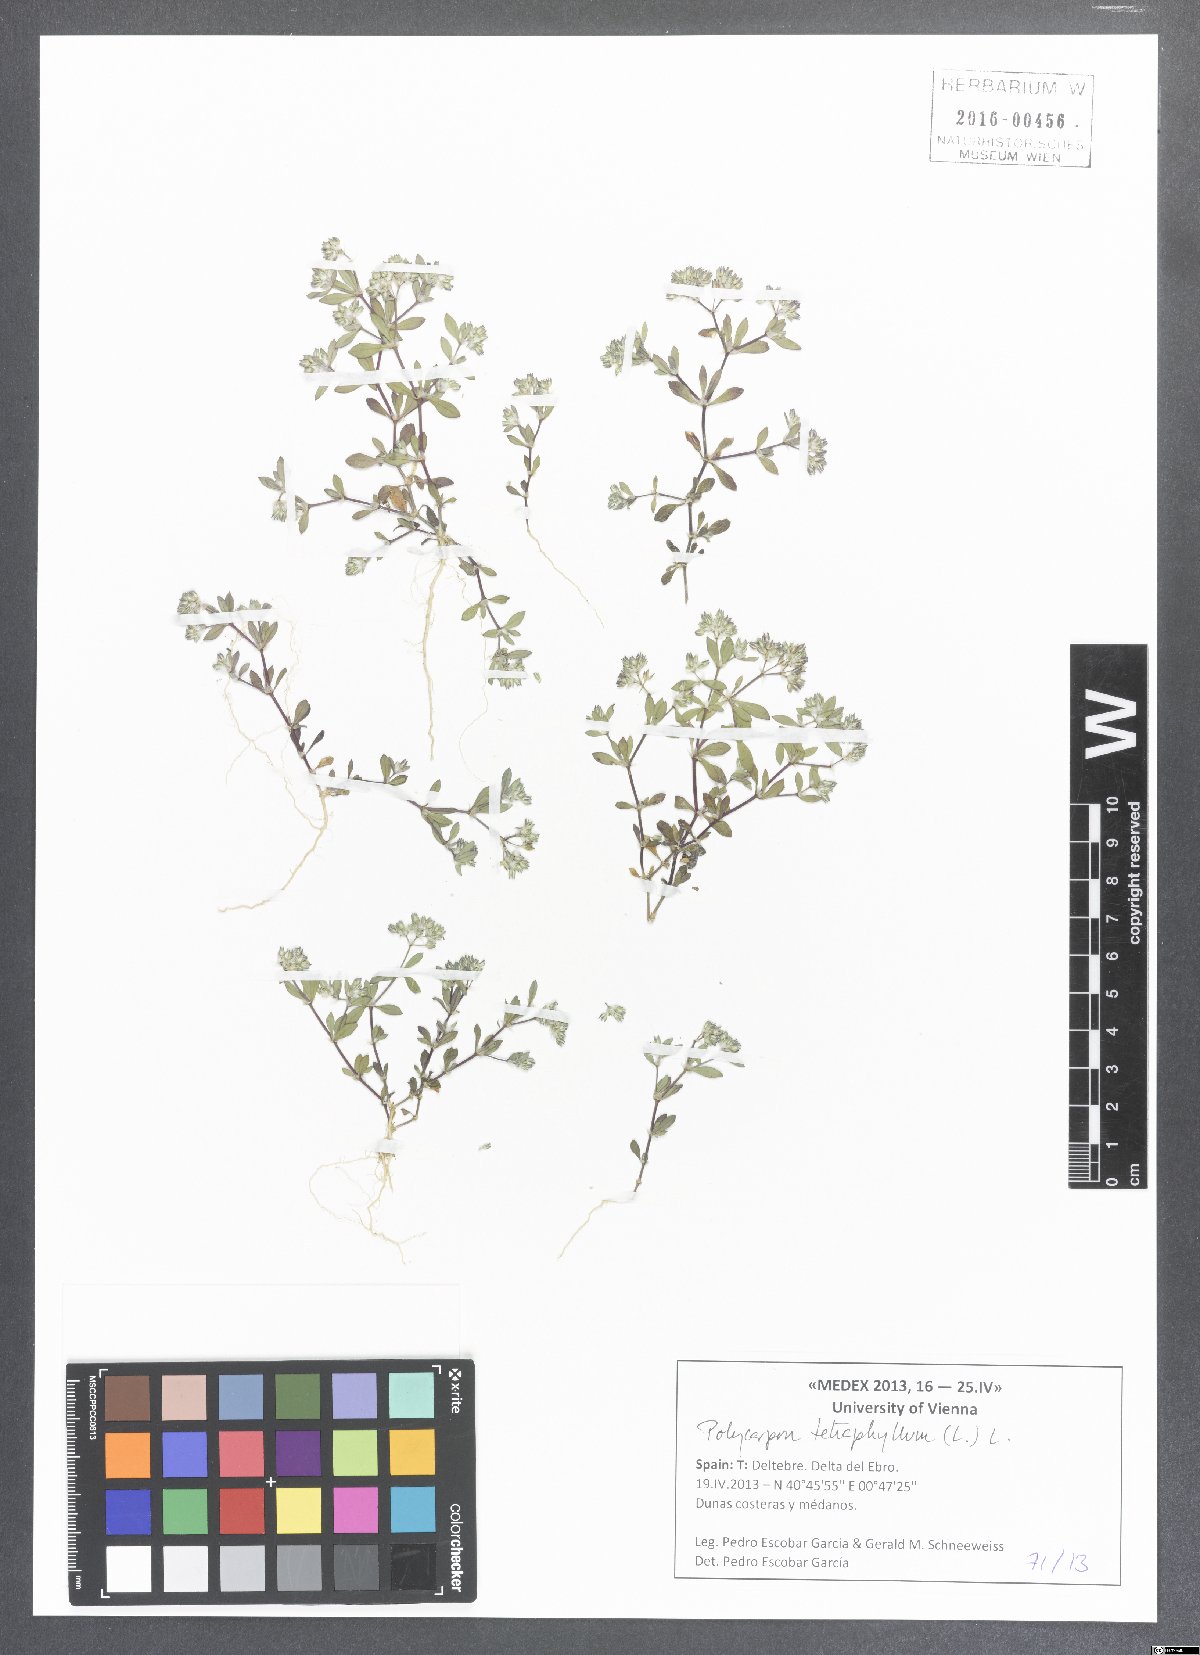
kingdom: Plantae
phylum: Tracheophyta
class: Magnoliopsida
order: Caryophyllales
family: Caryophyllaceae
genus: Polycarpon
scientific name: Polycarpon tetraphyllum
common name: Four-leaved all-seed
